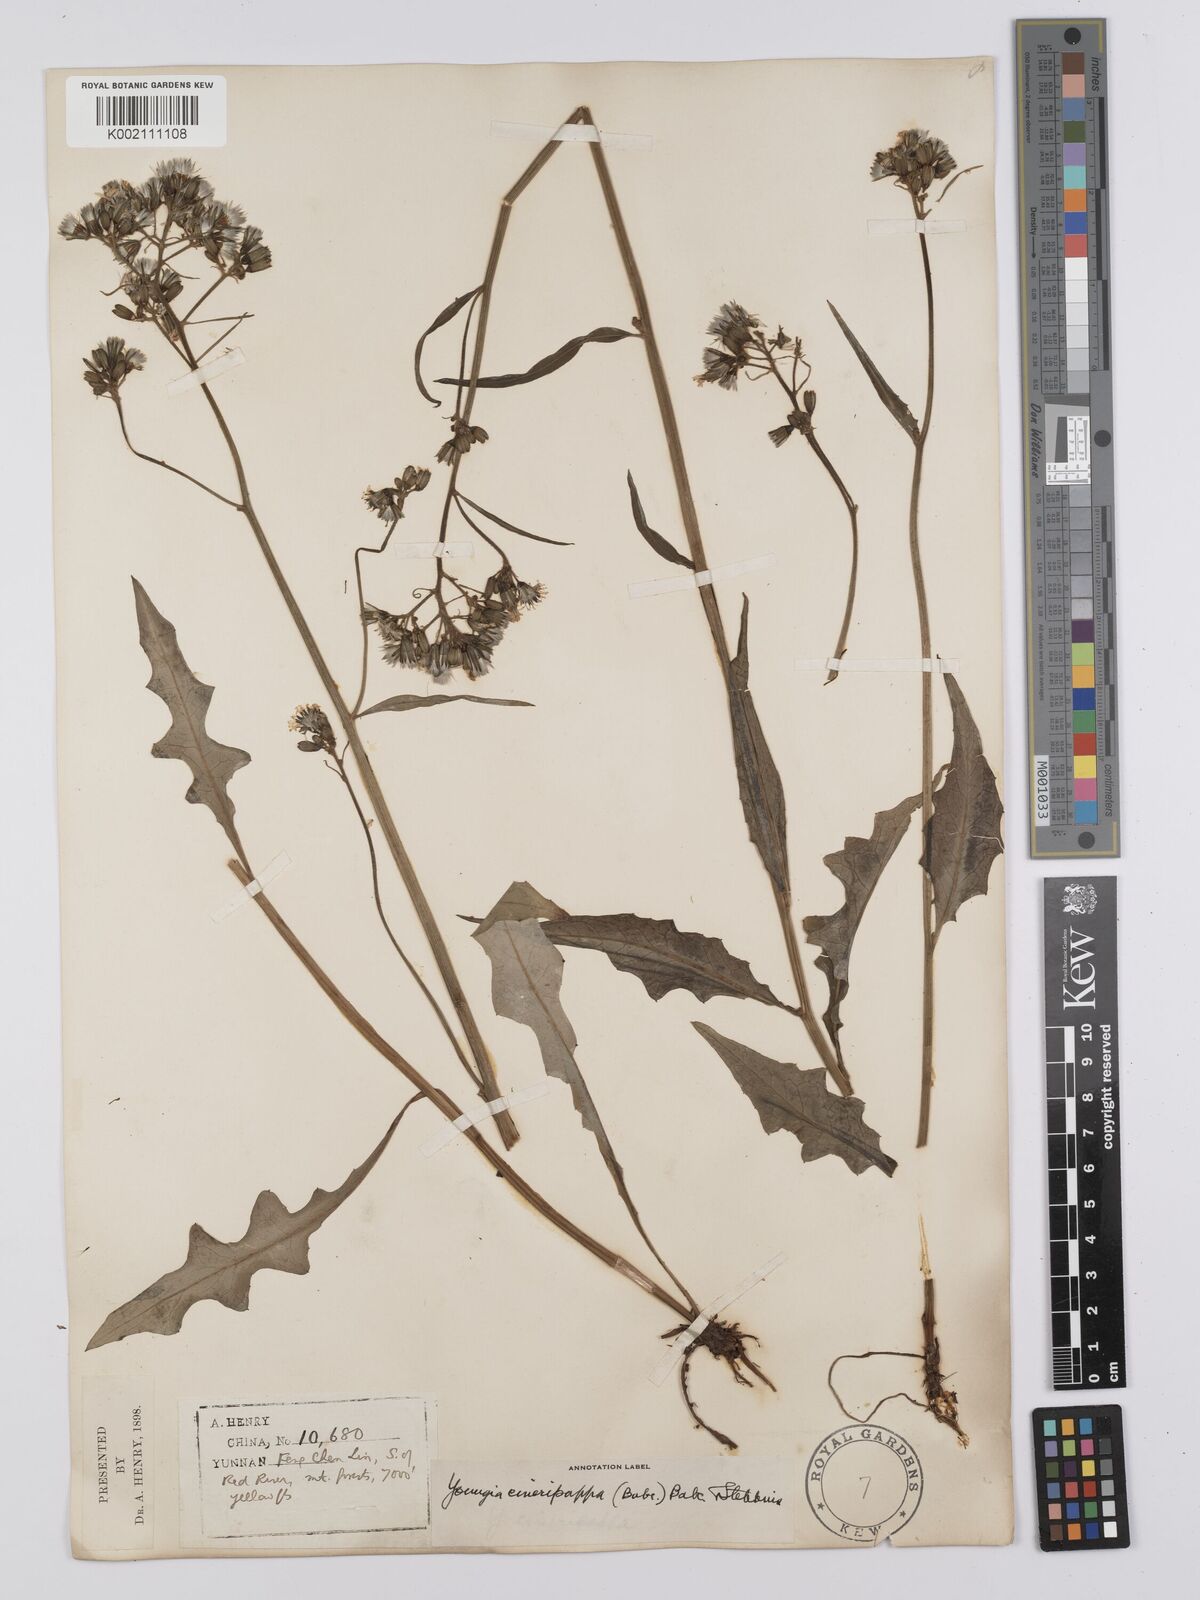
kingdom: Plantae
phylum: Tracheophyta
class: Magnoliopsida
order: Asterales
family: Asteraceae
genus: Youngia
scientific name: Youngia cineripappa
